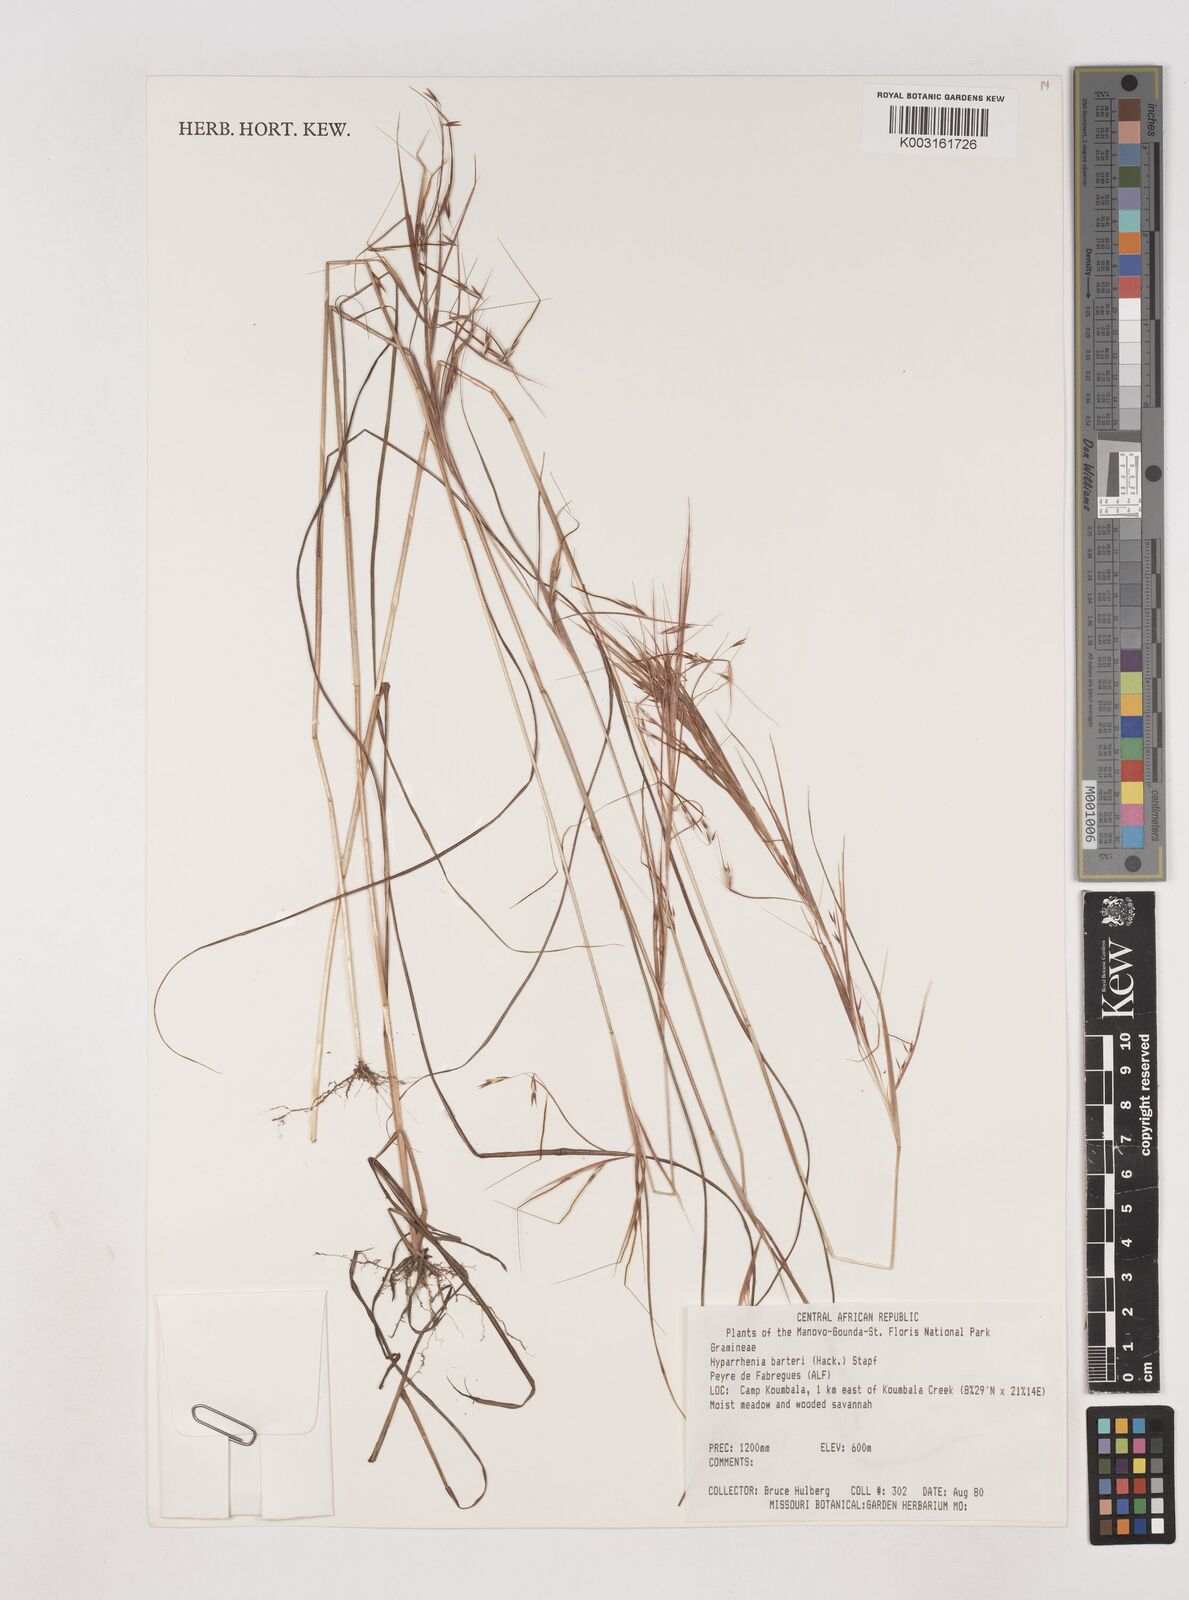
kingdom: Plantae
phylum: Tracheophyta
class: Liliopsida
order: Poales
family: Poaceae
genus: Hyparrhenia
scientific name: Hyparrhenia barteri
